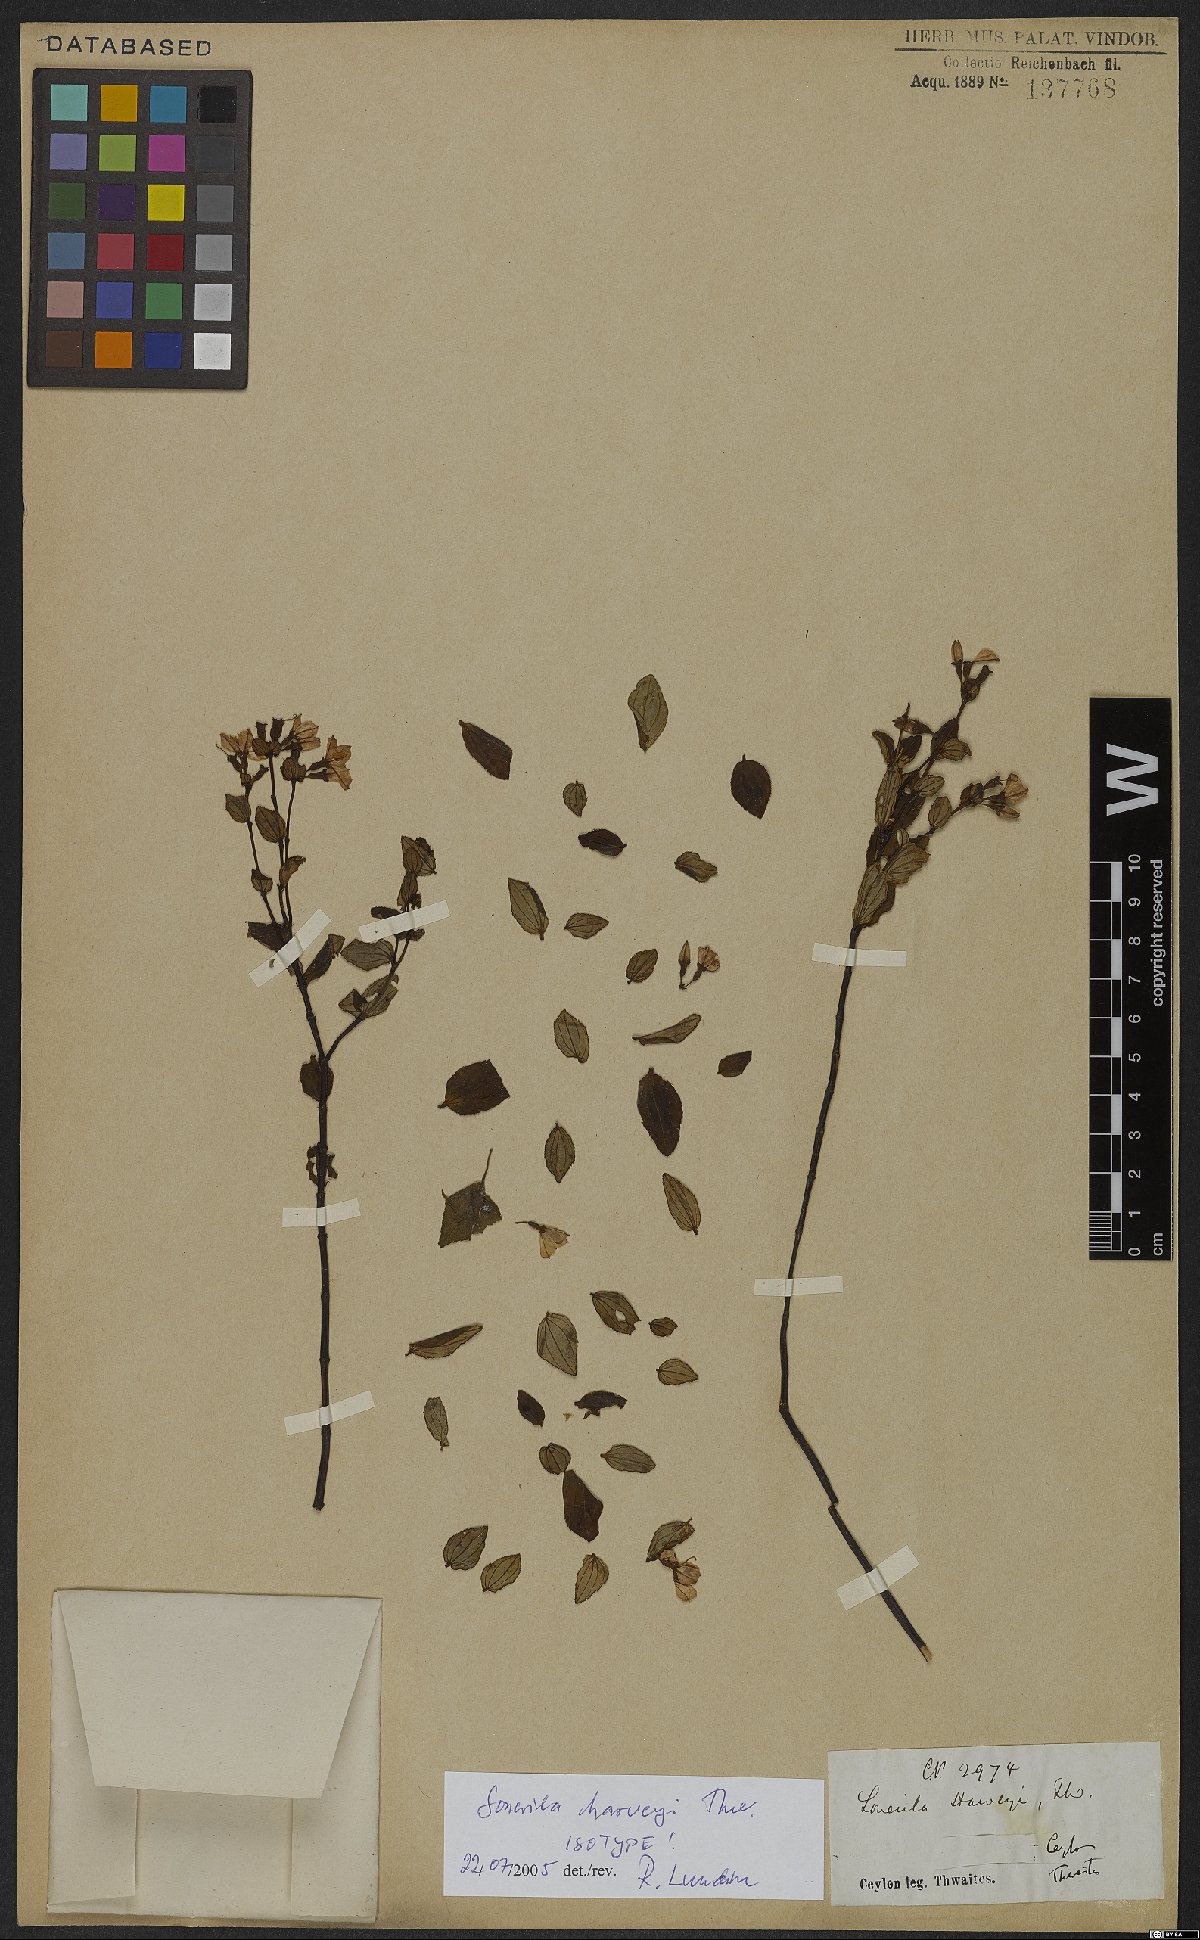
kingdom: Plantae
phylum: Tracheophyta
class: Magnoliopsida
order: Myrtales
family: Melastomataceae
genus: Sonerila
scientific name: Sonerila harveyi
